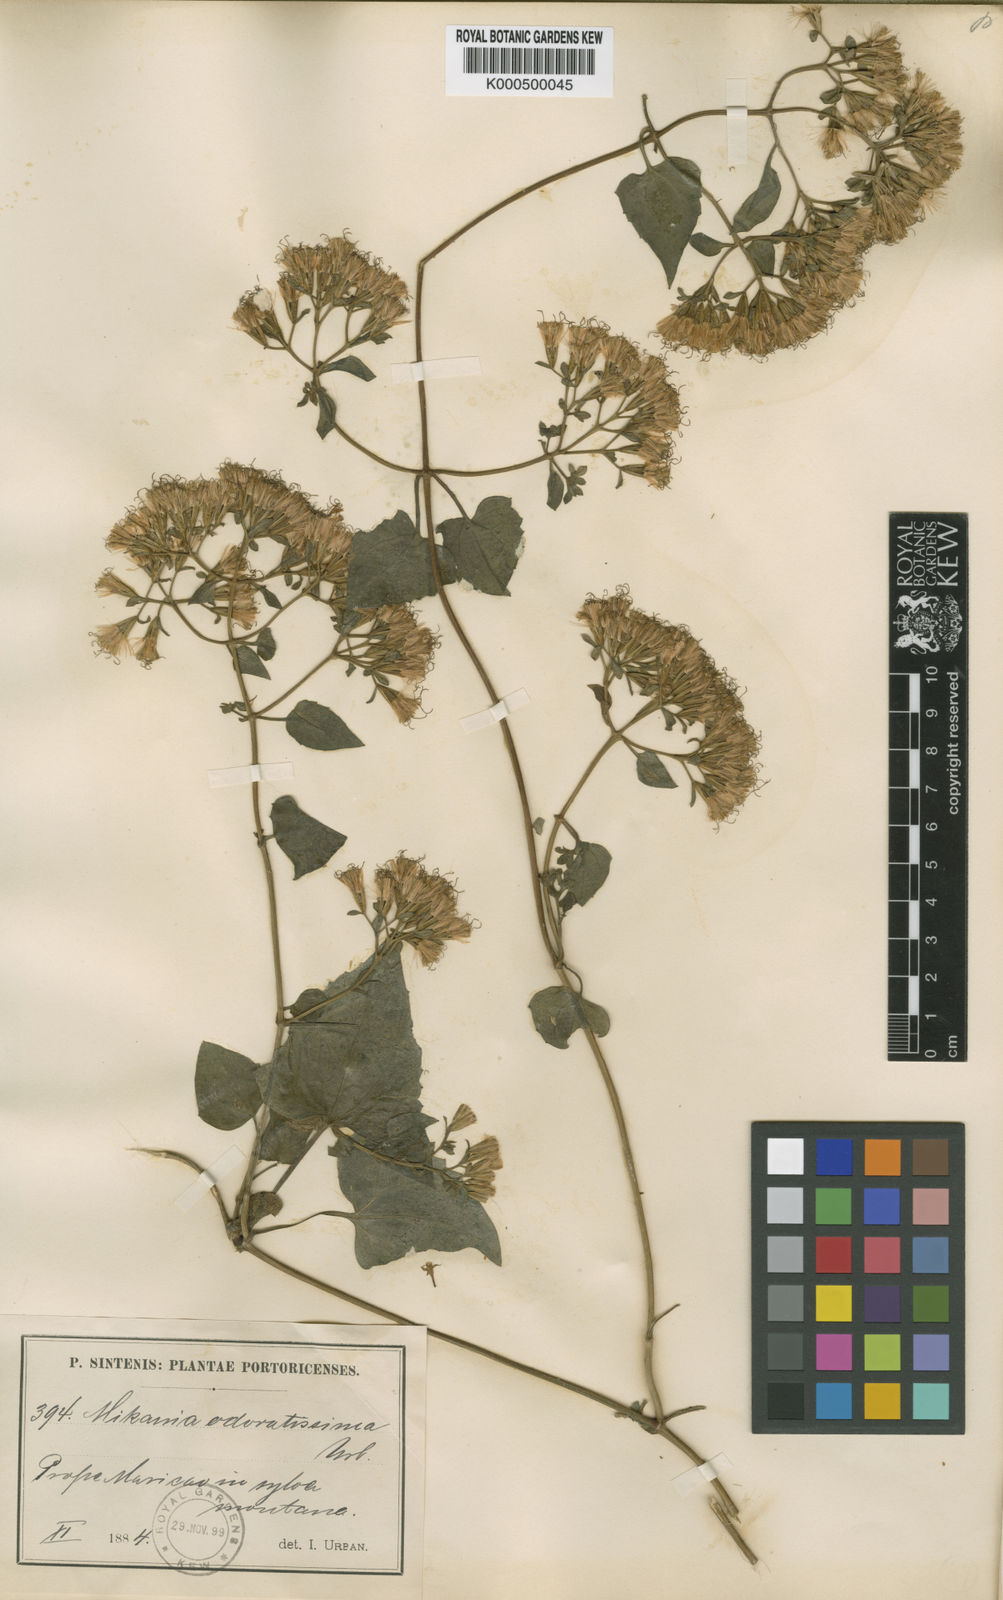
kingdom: Plantae
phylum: Tracheophyta
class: Magnoliopsida
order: Asterales
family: Asteraceae
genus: Mikania
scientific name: Mikania odoratissima
